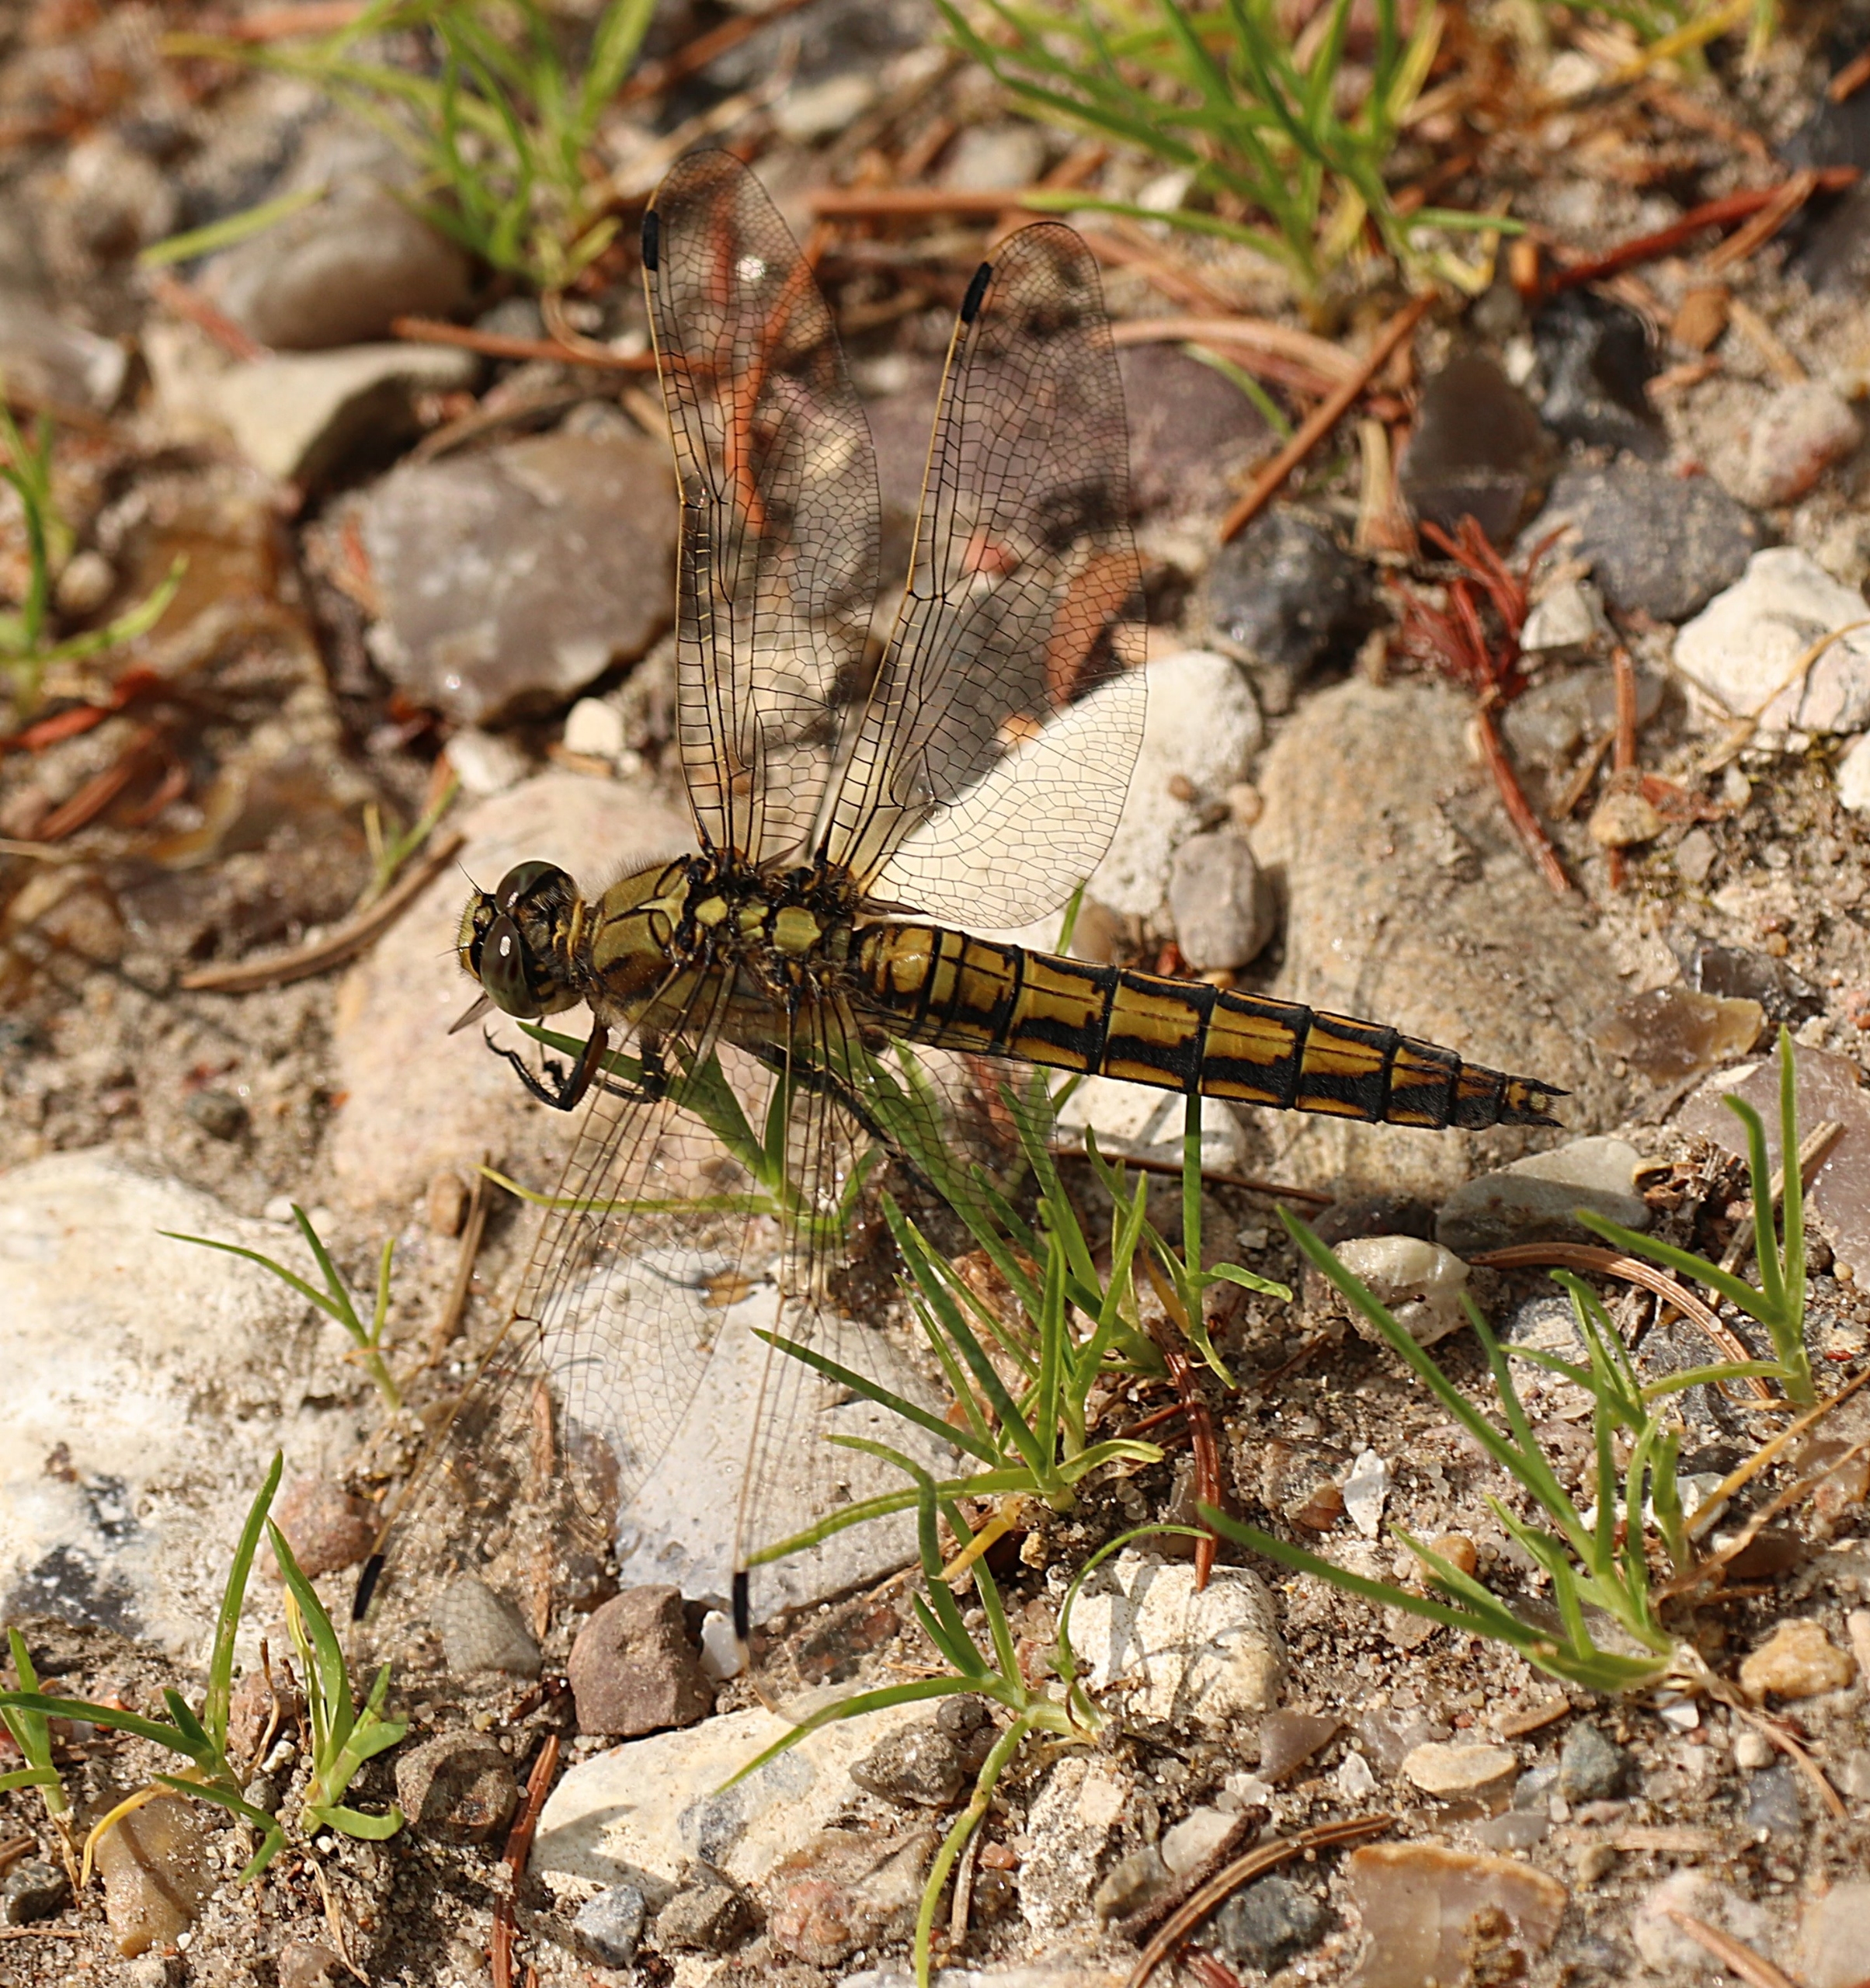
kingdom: Animalia
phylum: Arthropoda
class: Insecta
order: Odonata
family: Libellulidae
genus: Orthetrum
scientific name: Orthetrum cancellatum
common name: Stor blåpil
